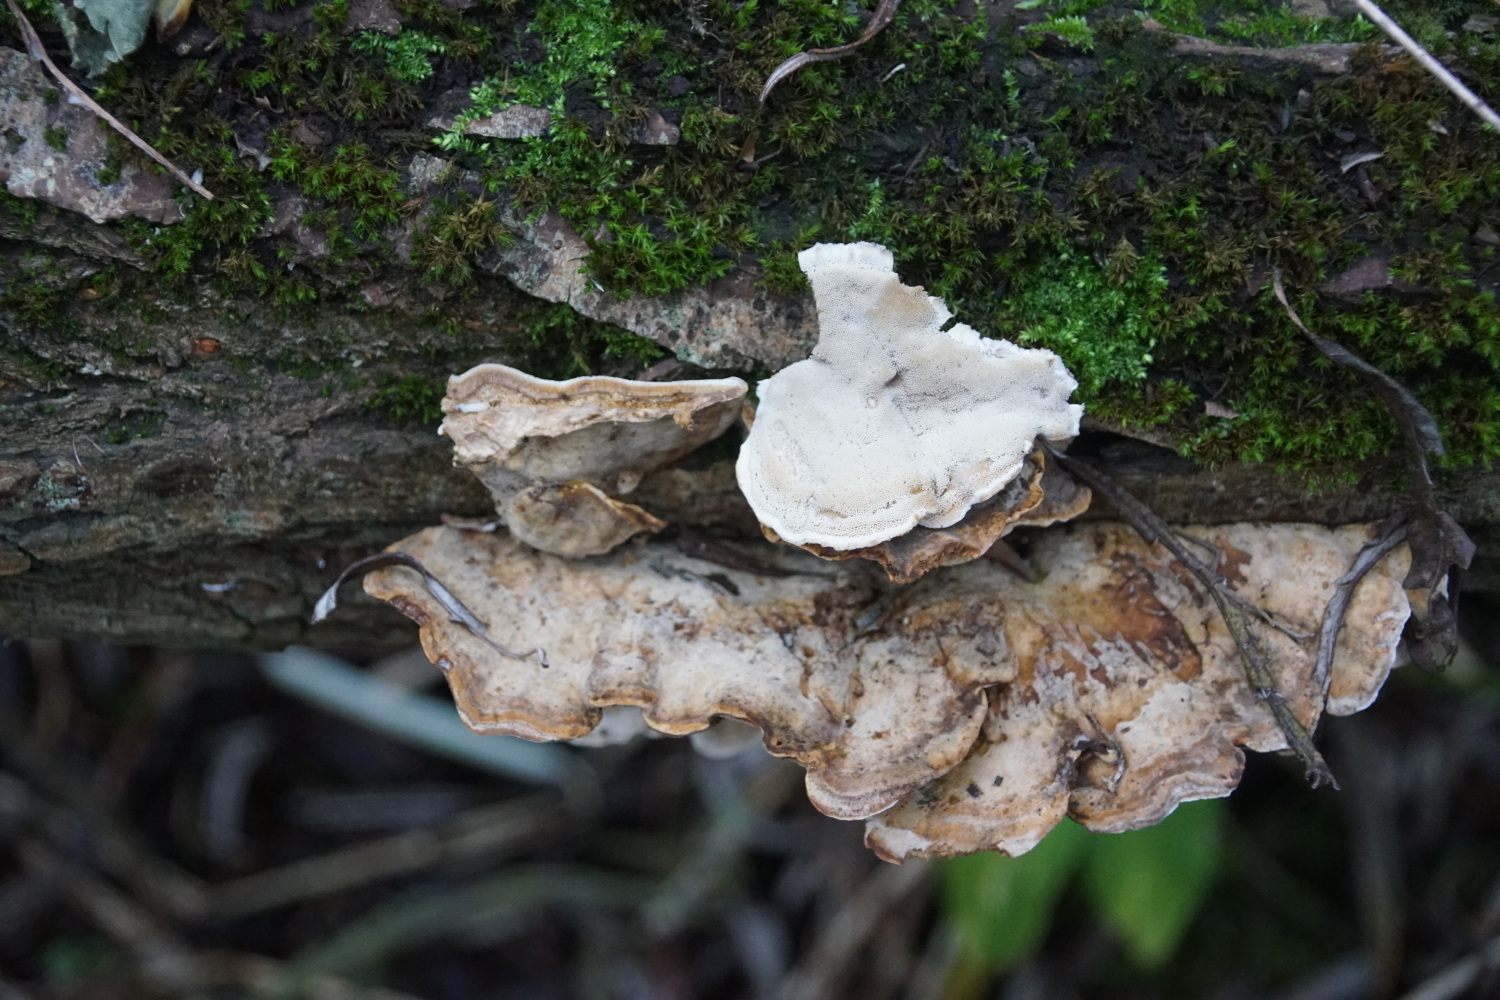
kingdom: Fungi
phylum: Basidiomycota
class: Agaricomycetes
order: Polyporales
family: Phanerochaetaceae
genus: Bjerkandera
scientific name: Bjerkandera fumosa
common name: grågul sodporesvamp
